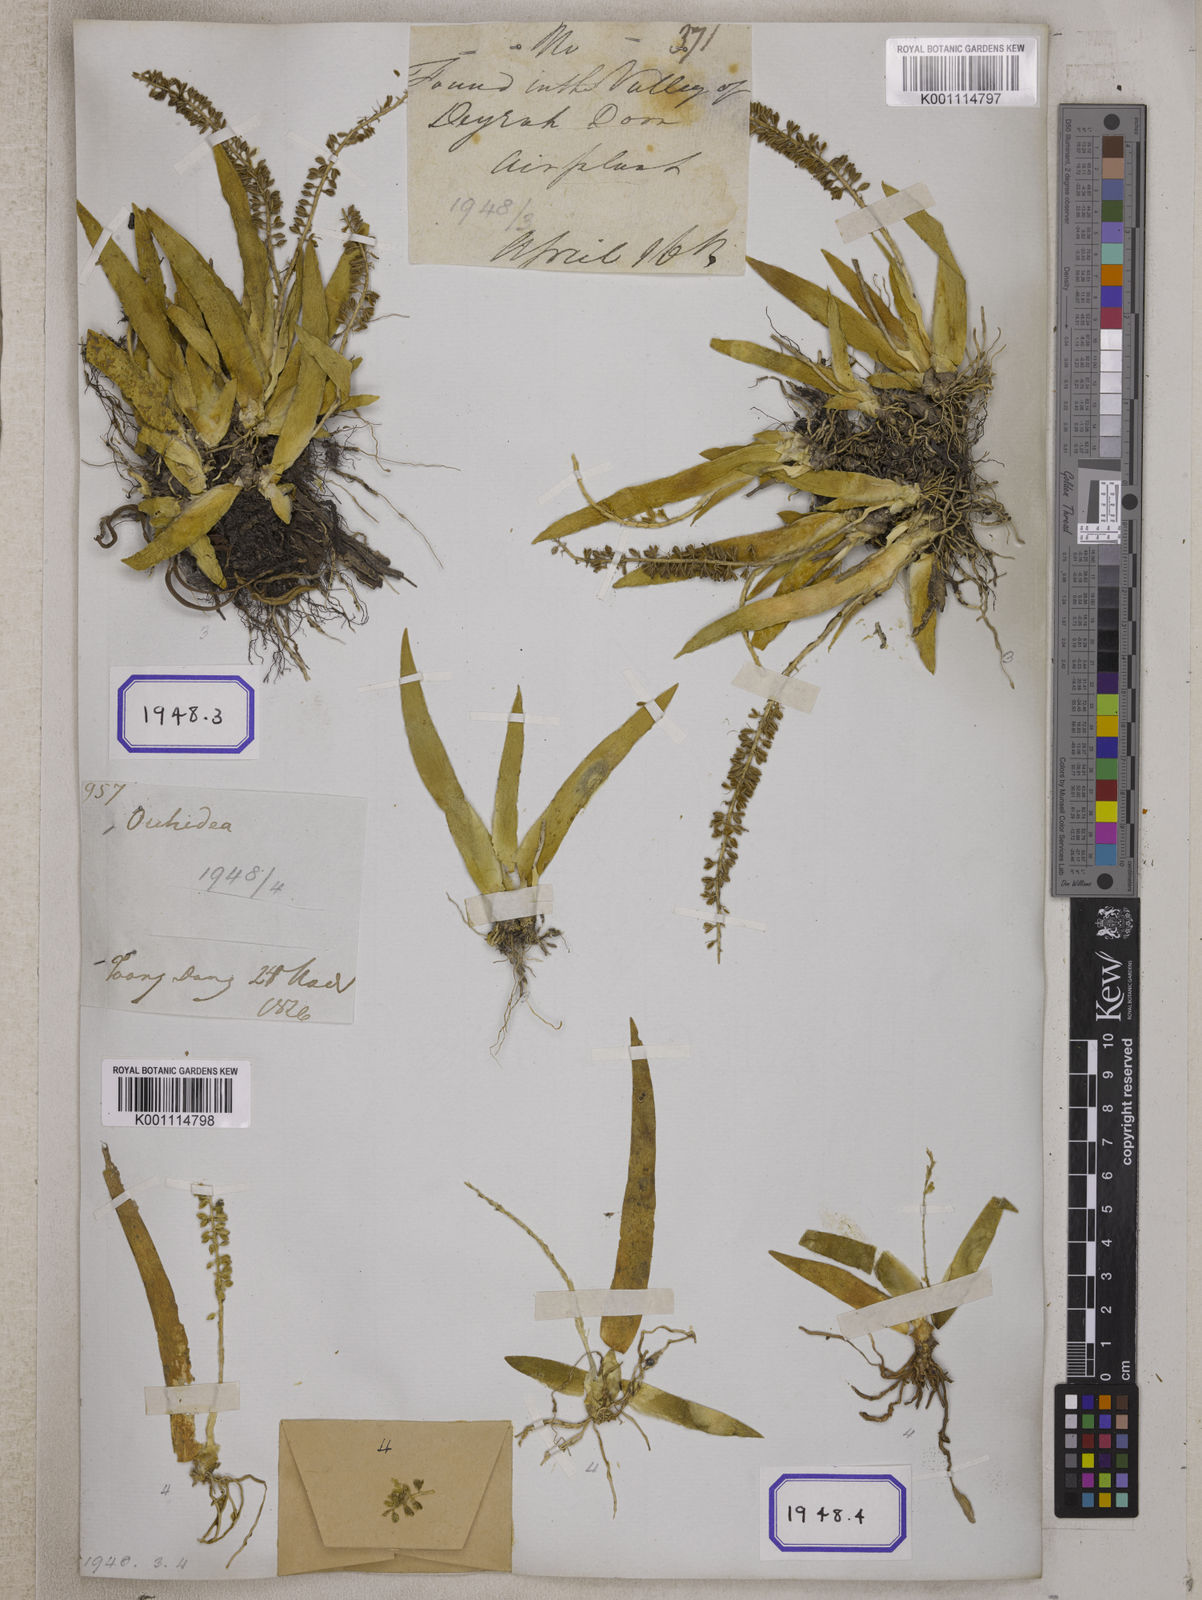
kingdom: Plantae
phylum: Tracheophyta
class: Liliopsida
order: Asparagales
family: Orchidaceae
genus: Oberonia
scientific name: Oberonia
